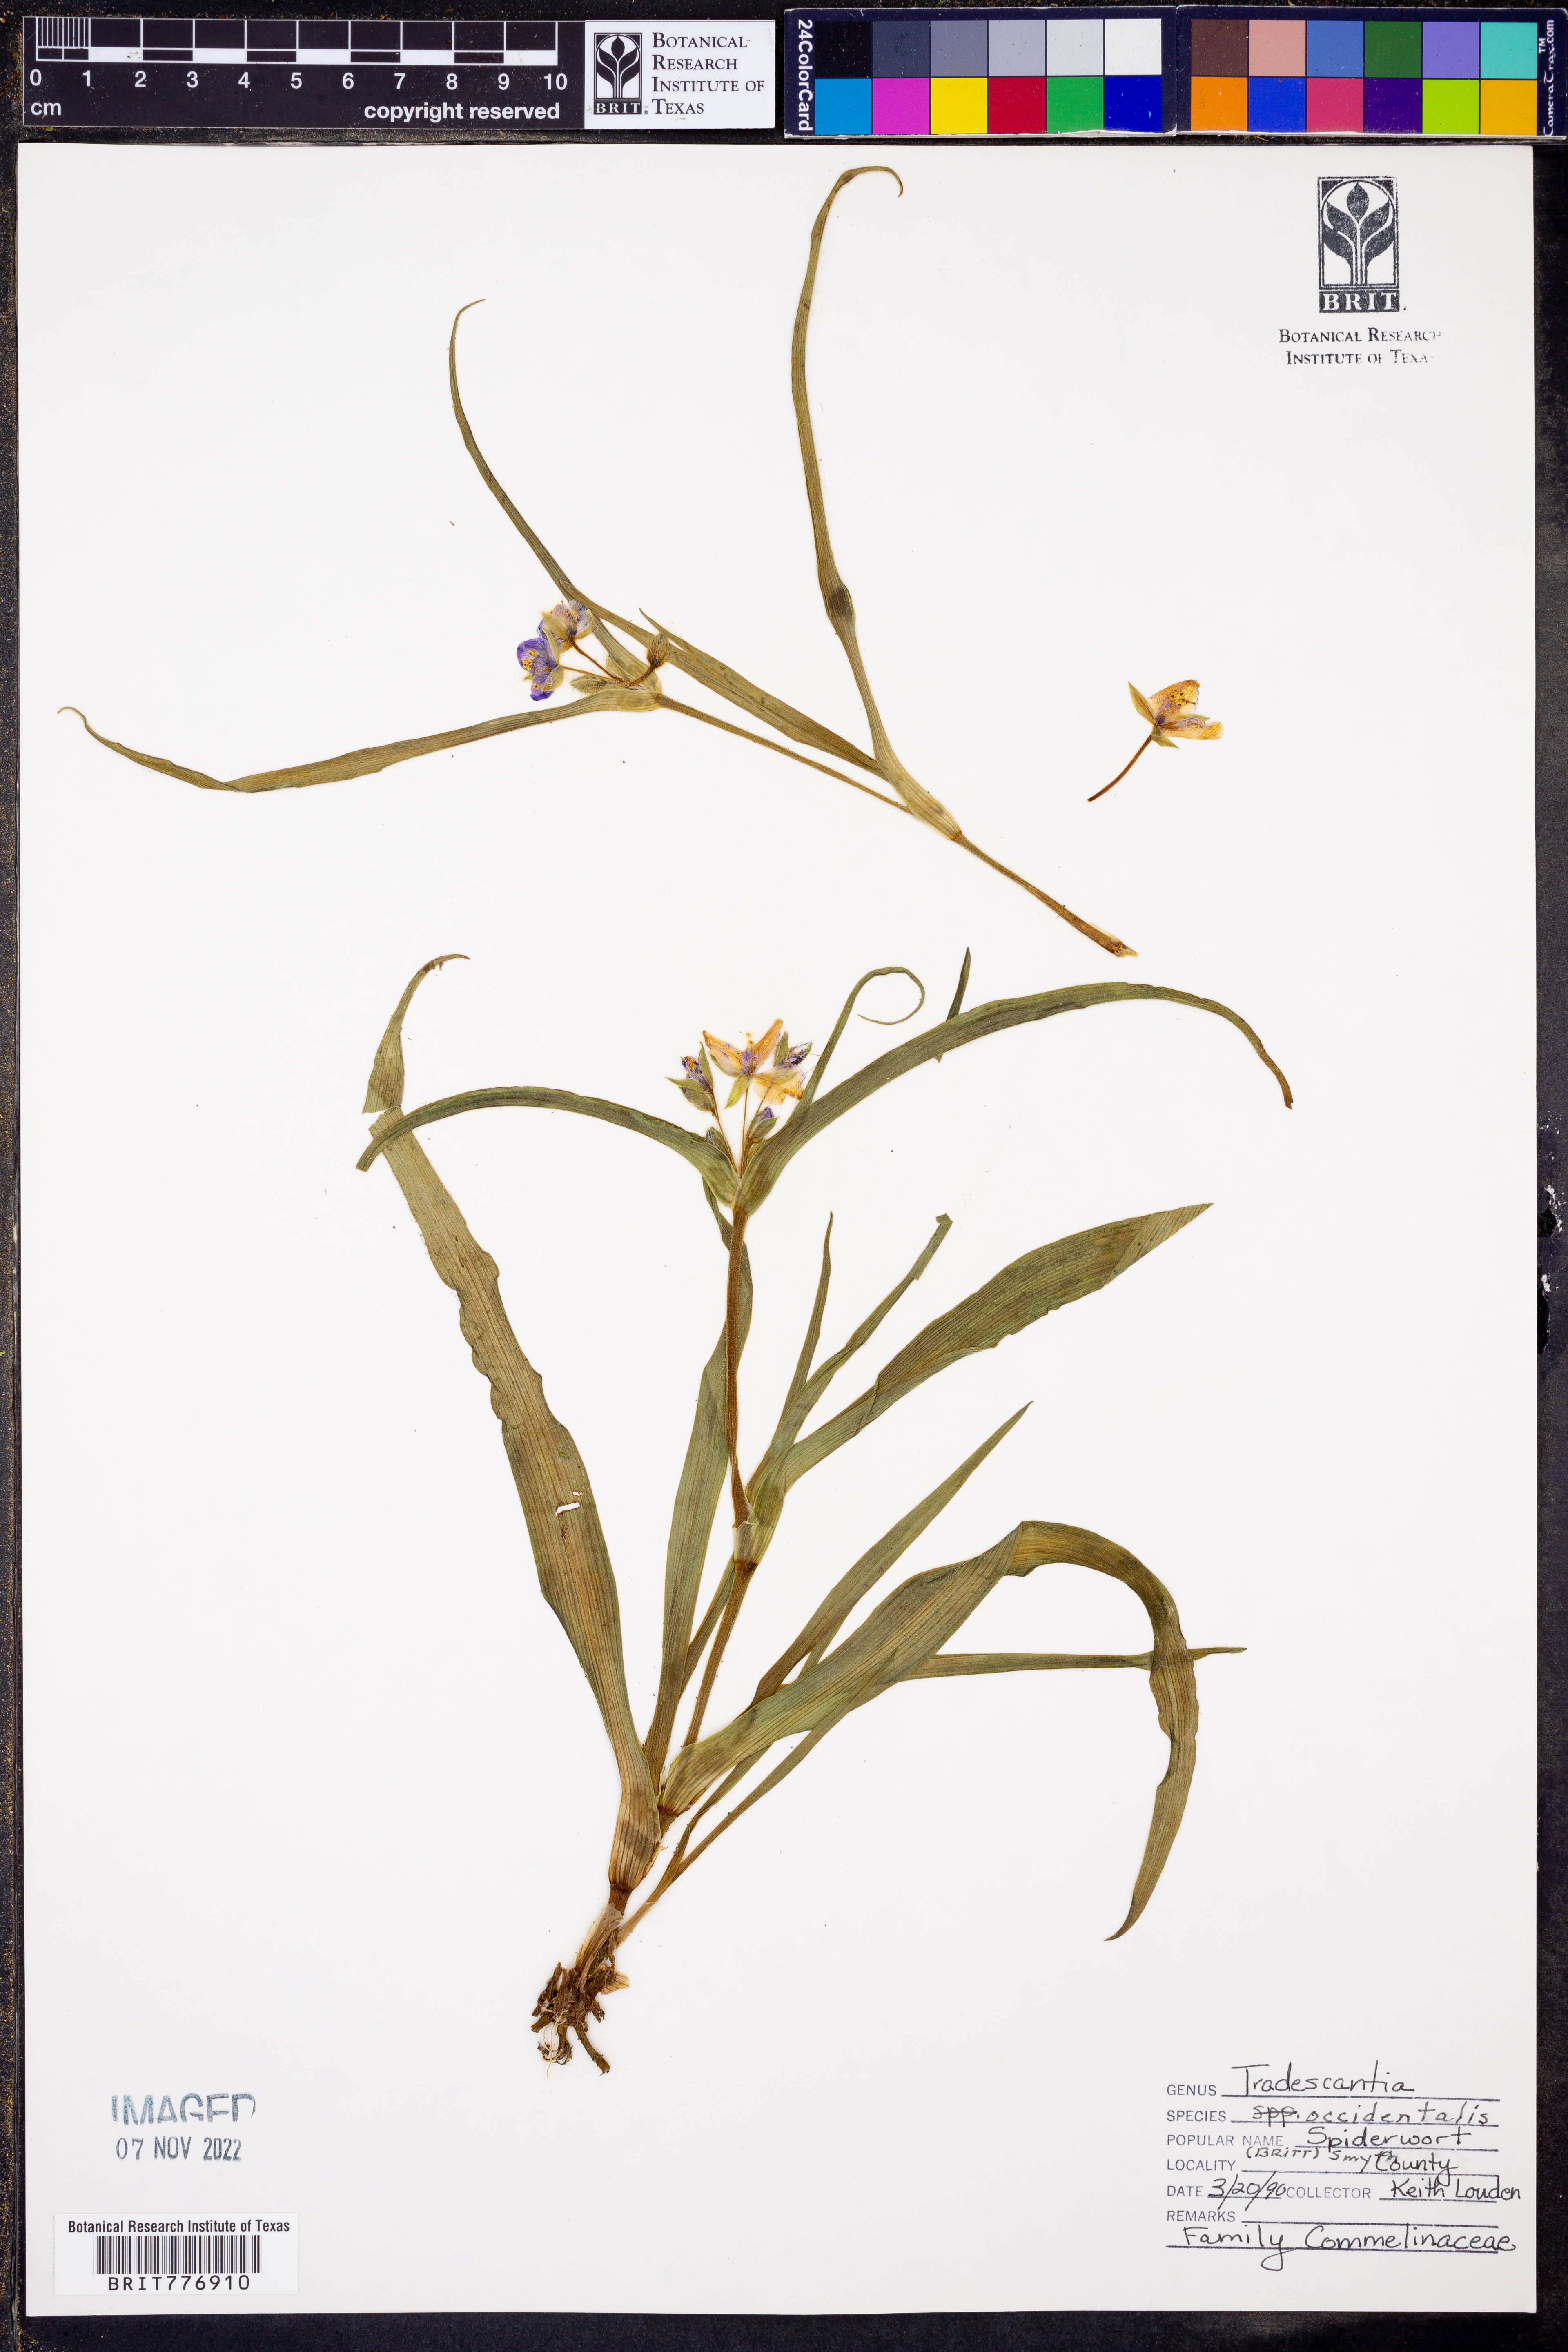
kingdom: Plantae
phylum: Tracheophyta
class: Liliopsida
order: Commelinales
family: Commelinaceae
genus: Tradescantia
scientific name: Tradescantia occidentalis
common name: Prairie spiderwort
